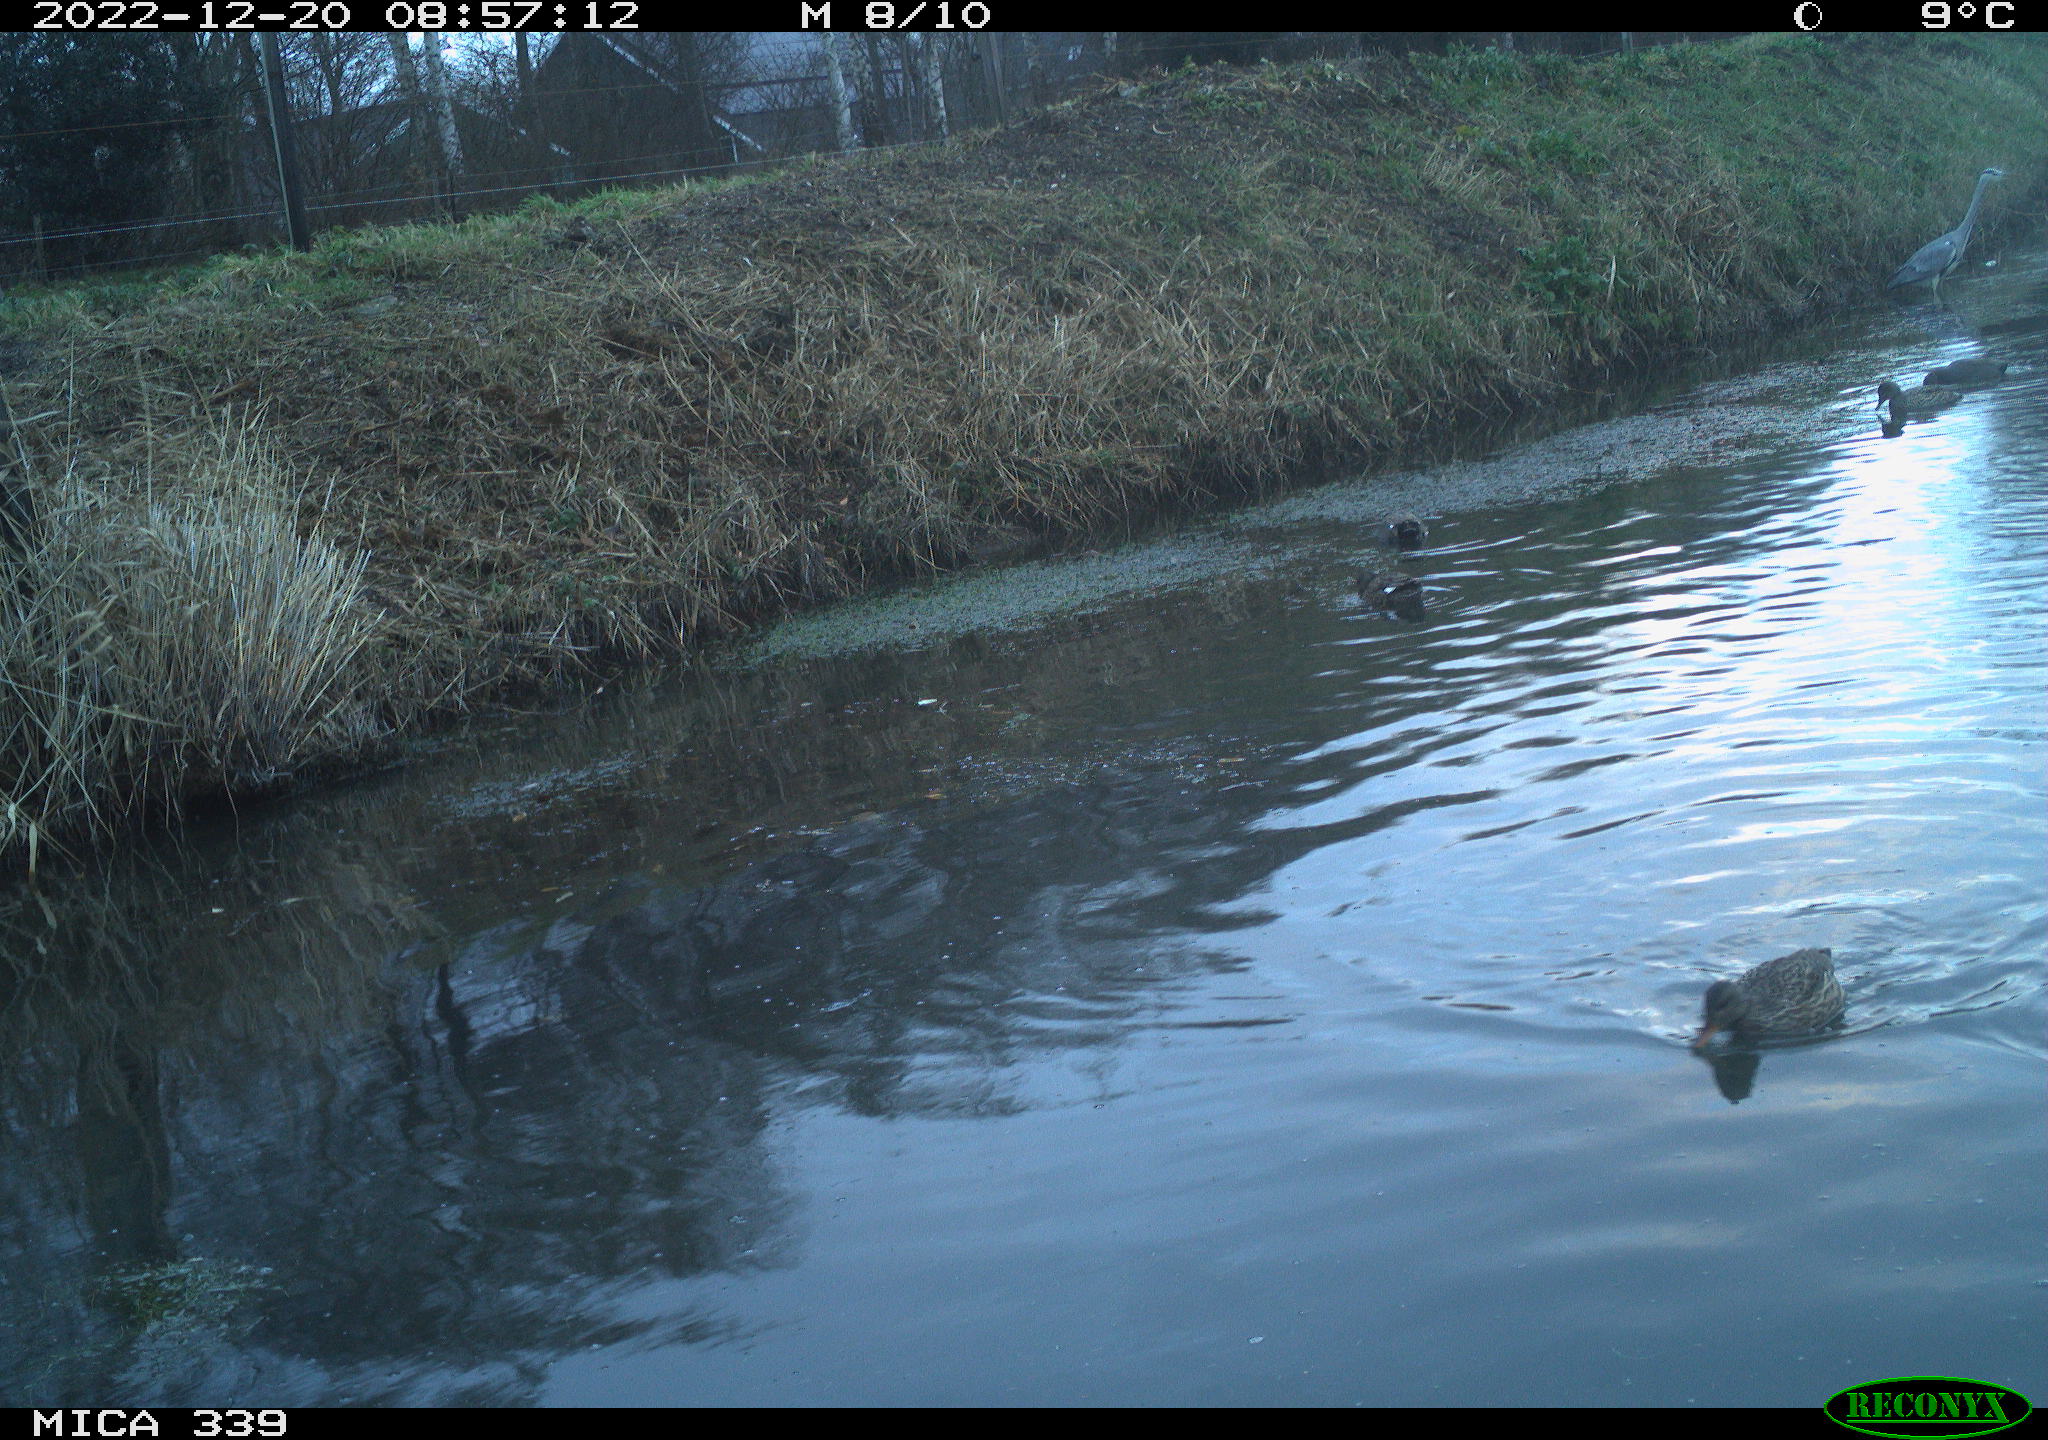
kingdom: Animalia
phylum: Chordata
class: Aves
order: Pelecaniformes
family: Ardeidae
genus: Ardea
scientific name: Ardea cinerea
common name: Grey heron
